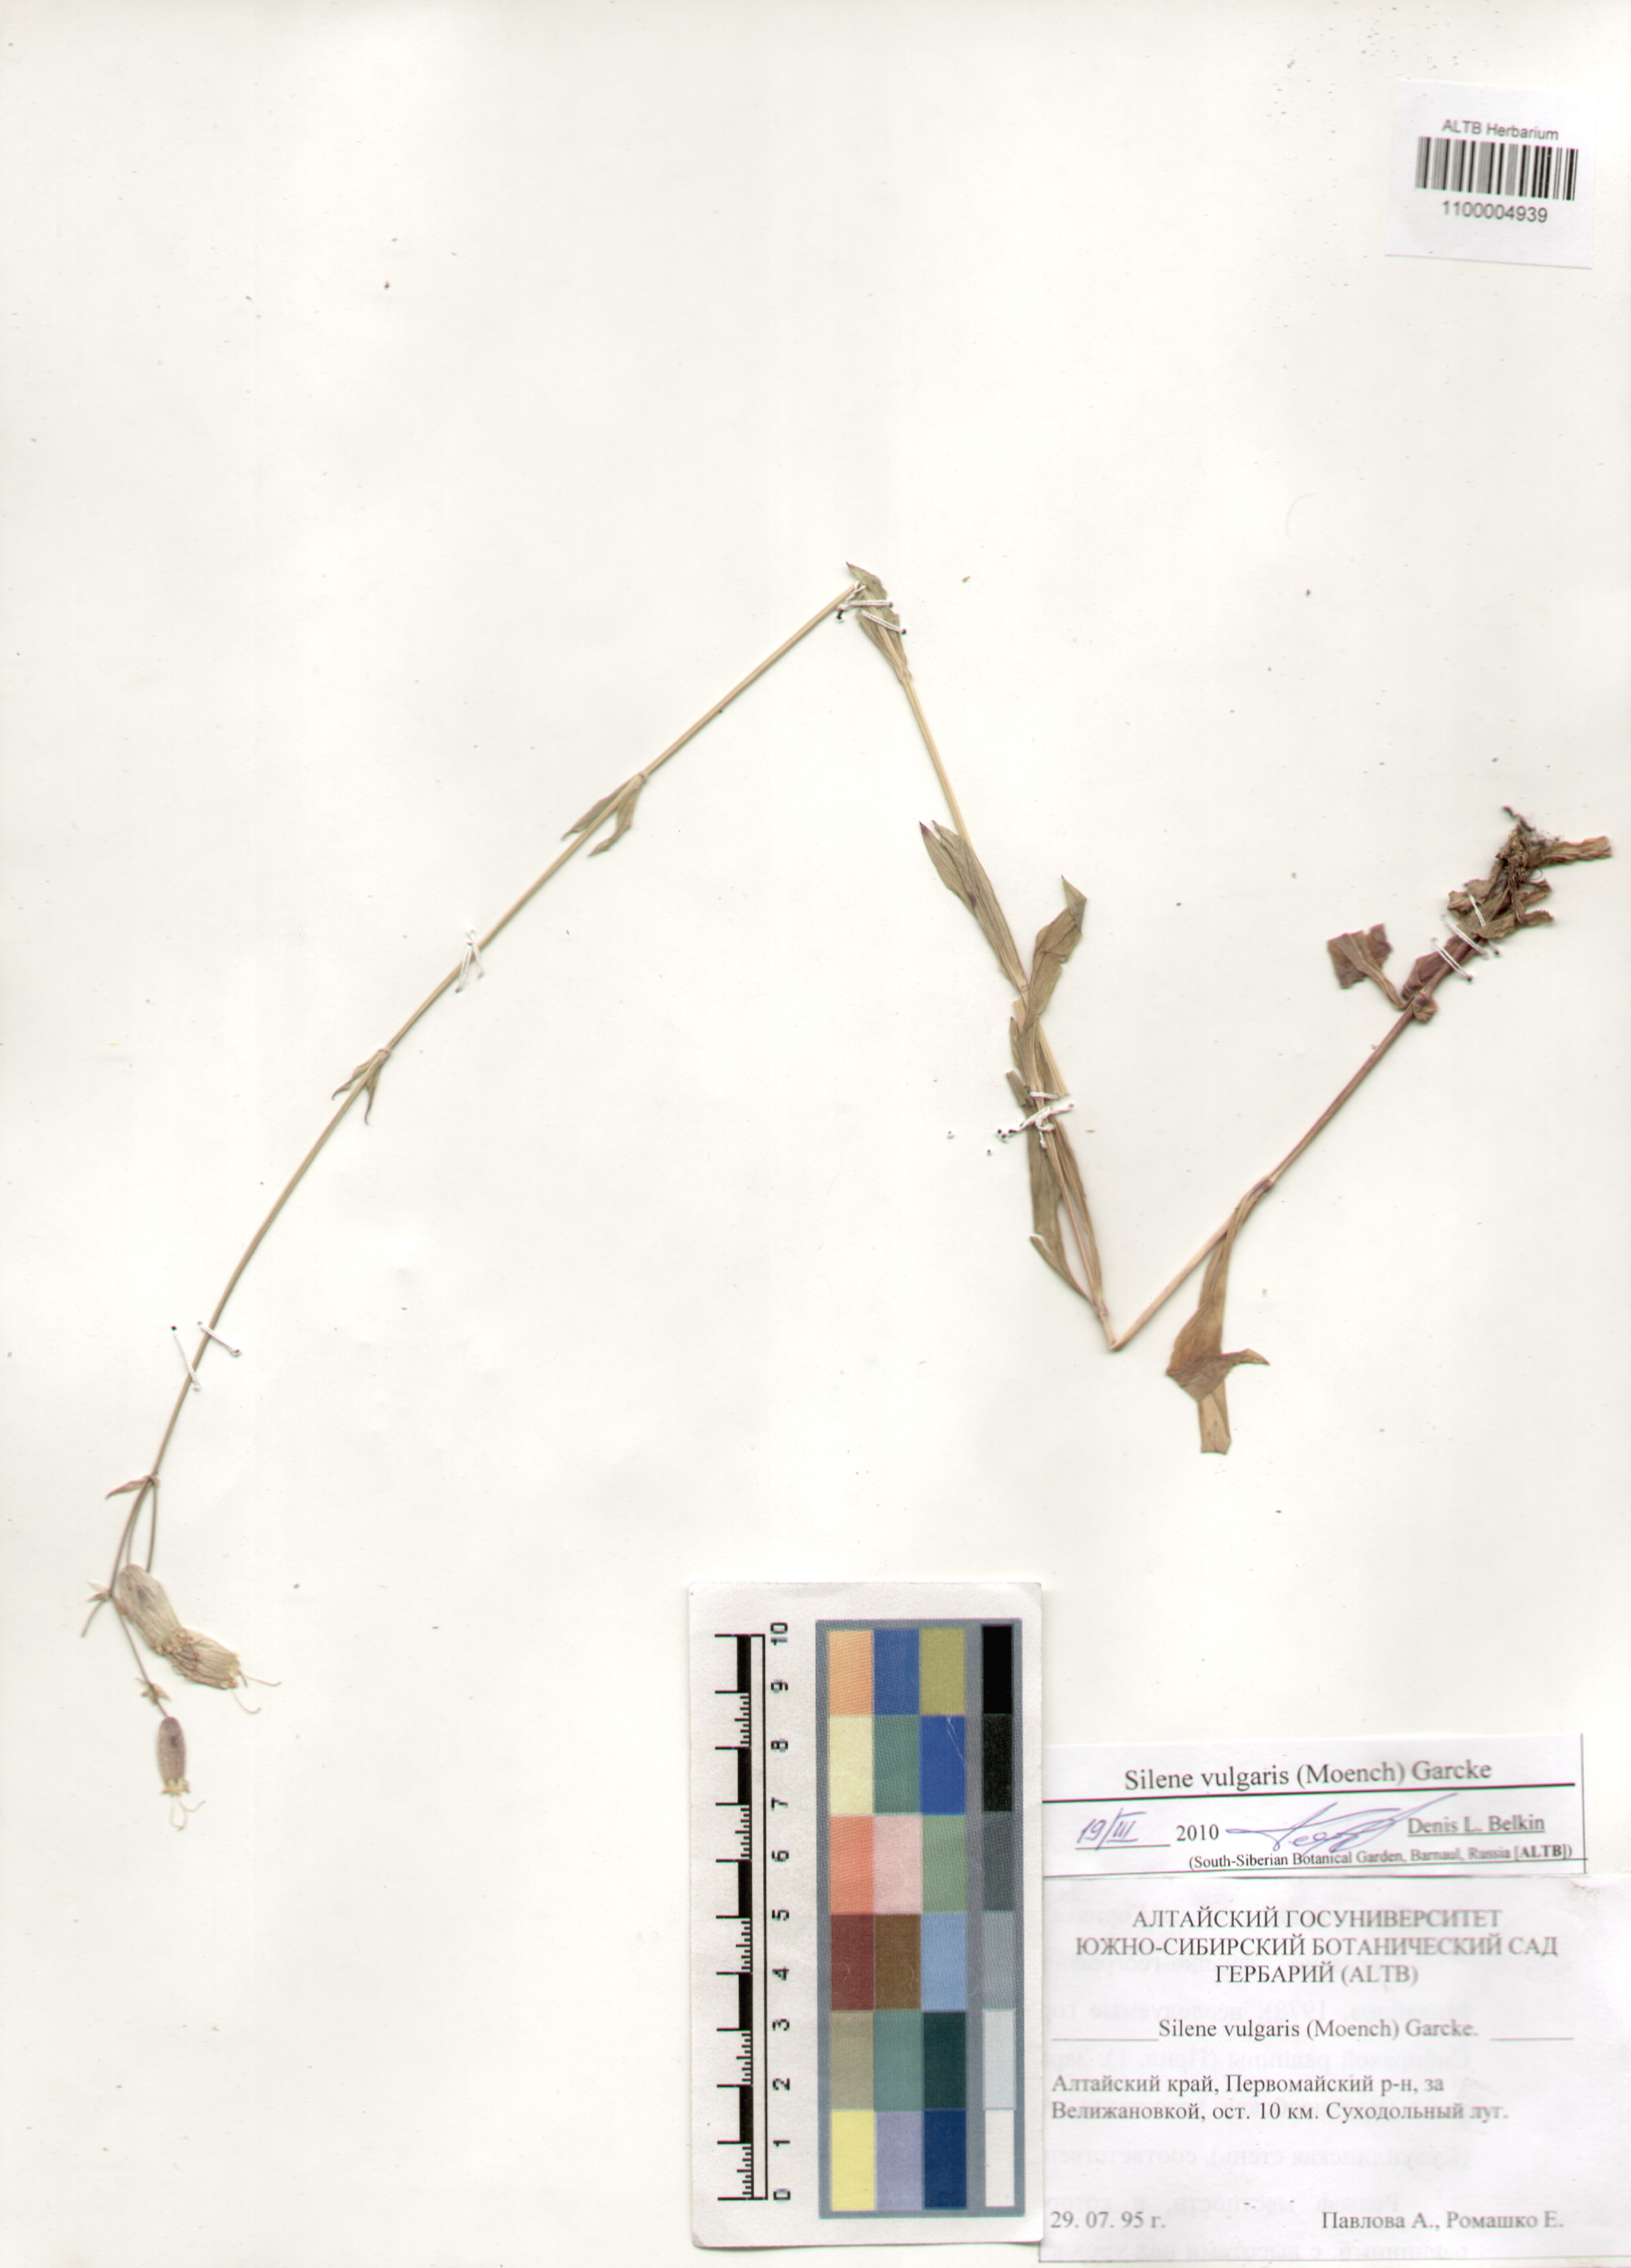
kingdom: Plantae
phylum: Tracheophyta
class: Magnoliopsida
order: Caryophyllales
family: Caryophyllaceae
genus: Silene
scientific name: Silene vulgaris
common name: Bladder campion
